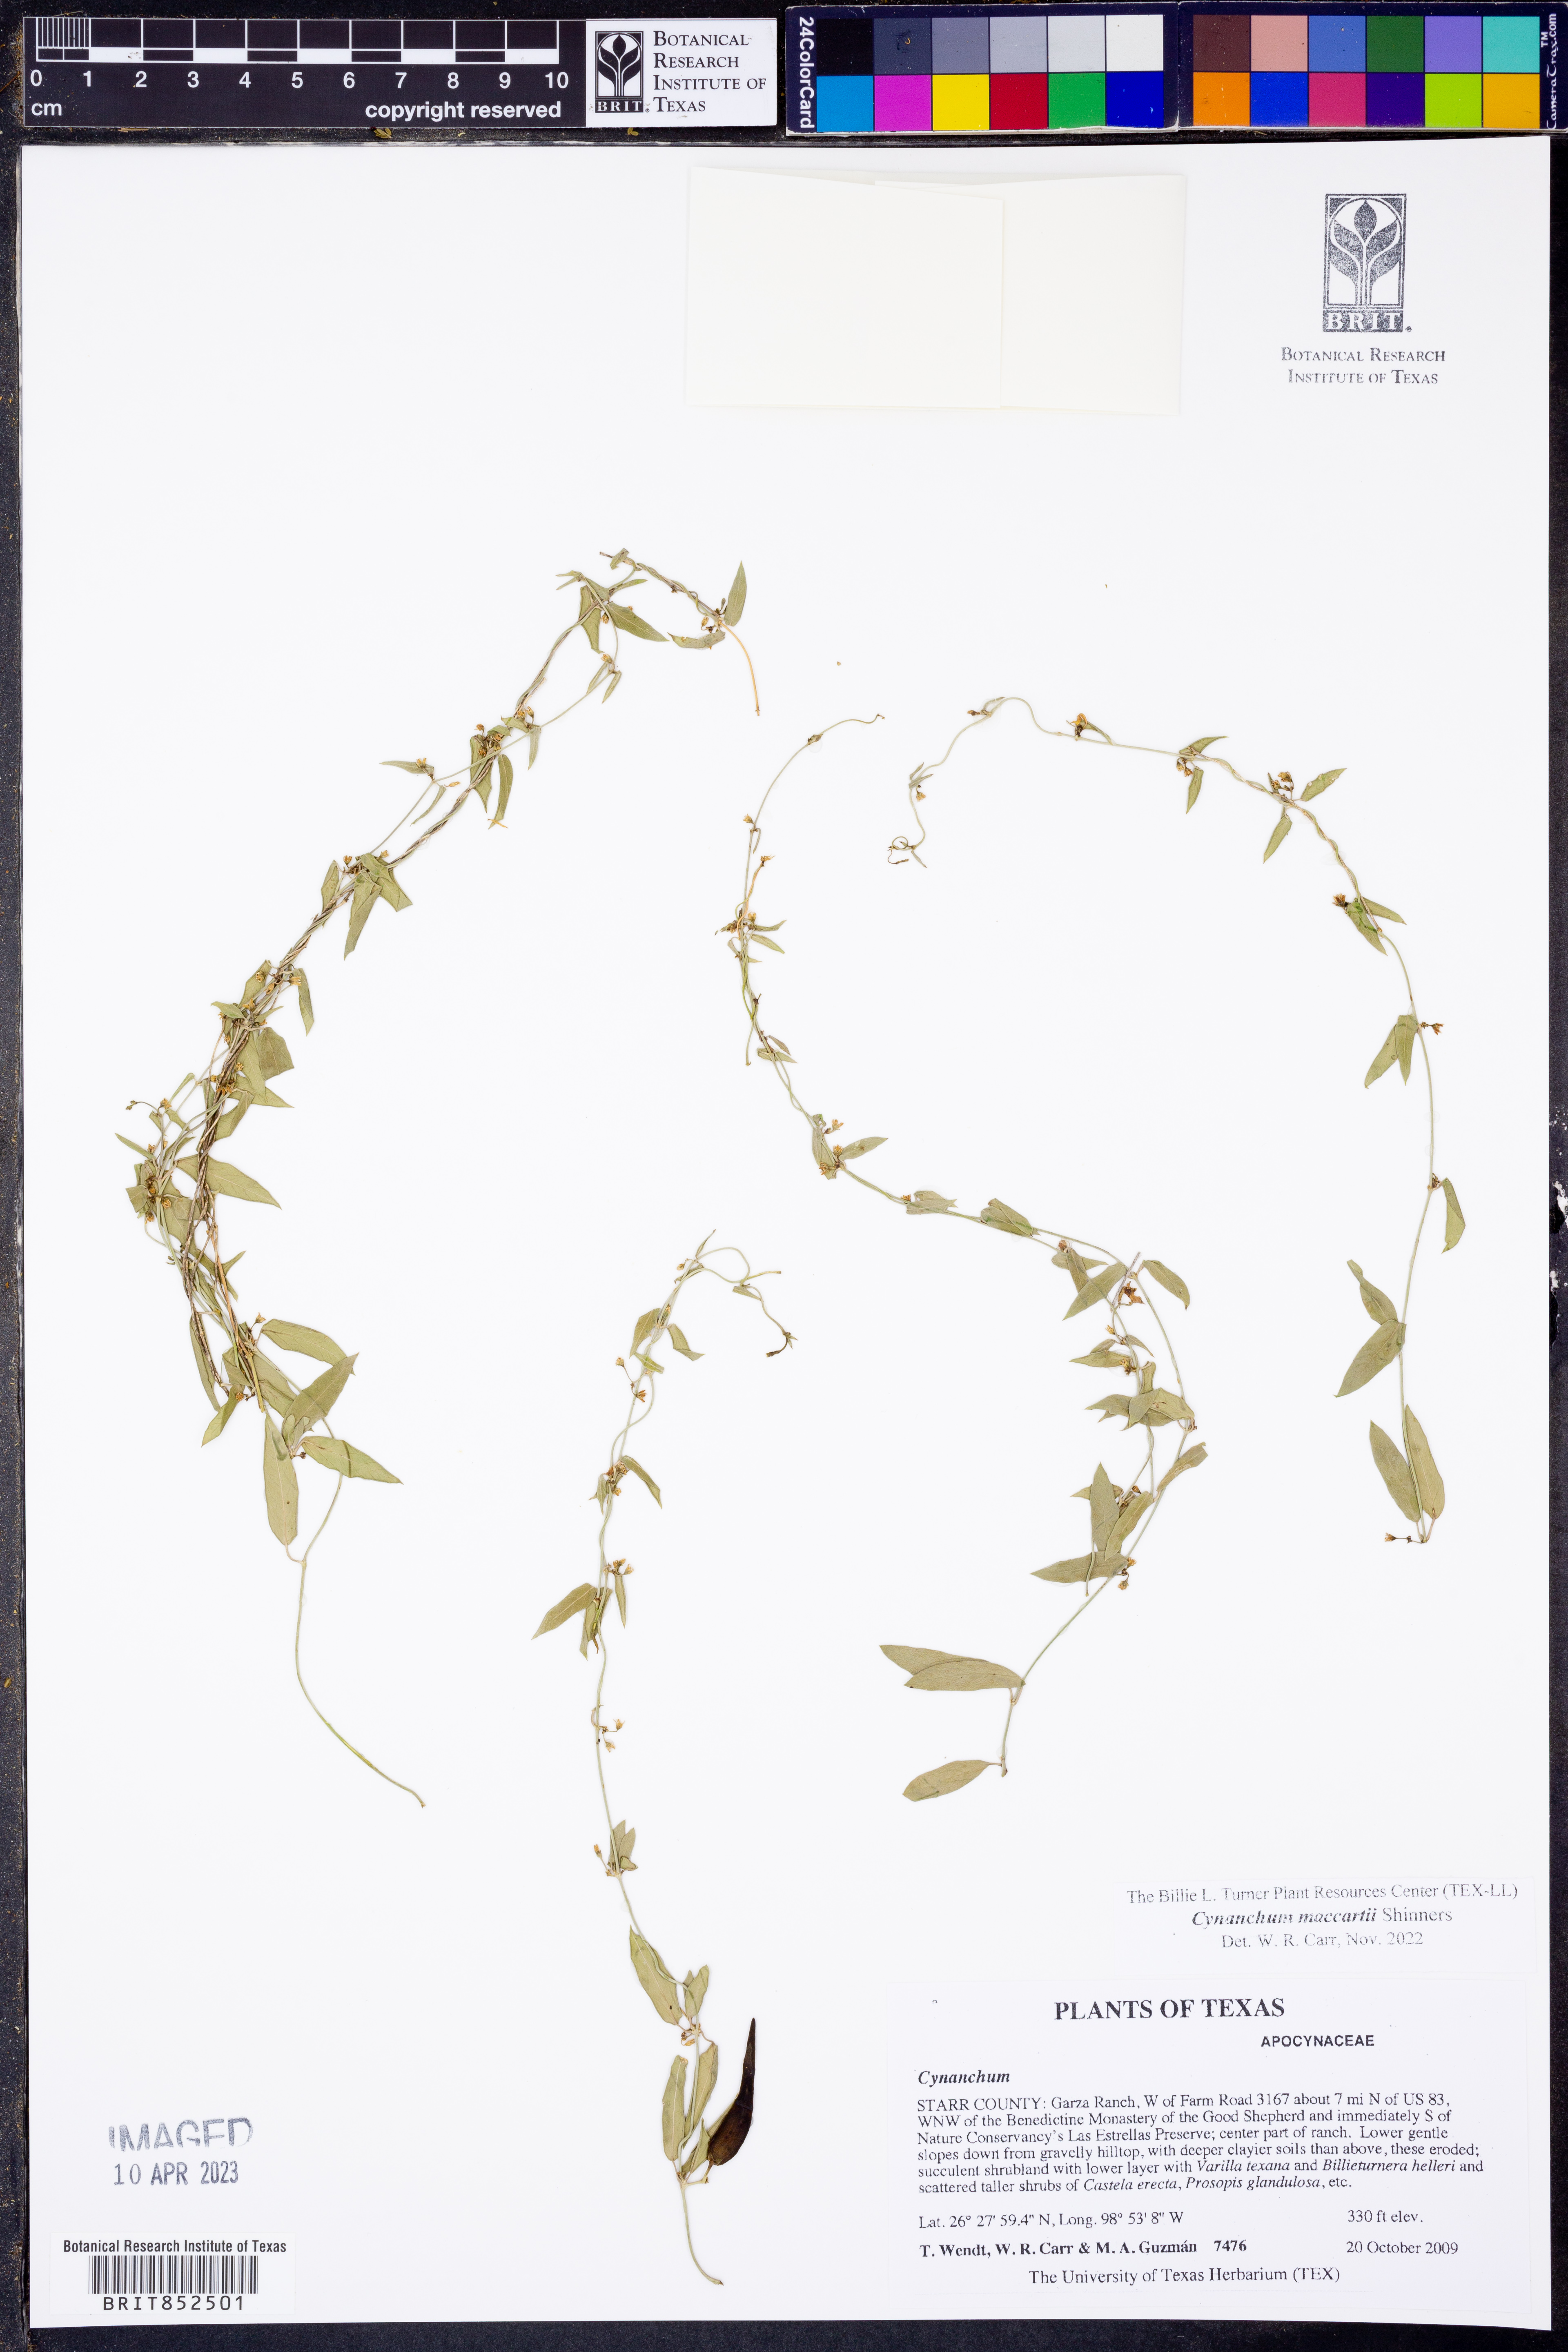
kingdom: Plantae
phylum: Tracheophyta
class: Magnoliopsida
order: Gentianales
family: Apocynaceae
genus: Metastelma
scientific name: Metastelma palmeri
